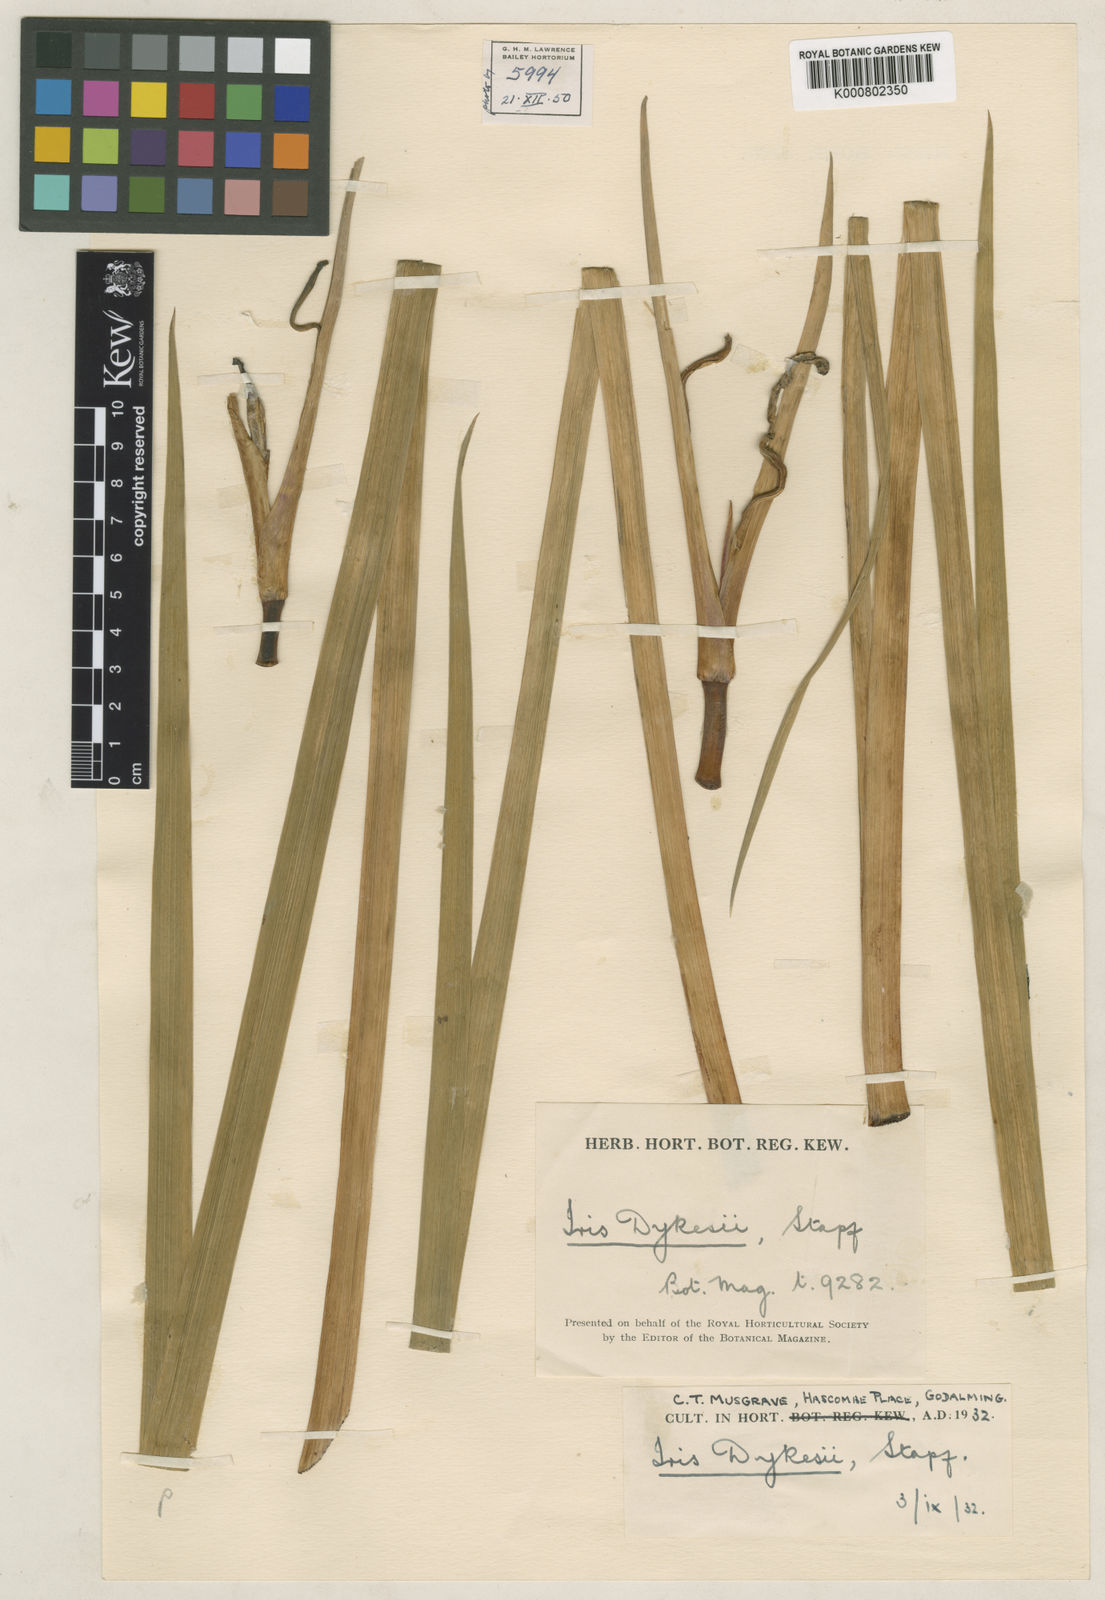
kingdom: Plantae
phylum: Tracheophyta
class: Liliopsida
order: Asparagales
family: Iridaceae
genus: Iris
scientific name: Iris chrysographes
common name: Gold-vein iris
